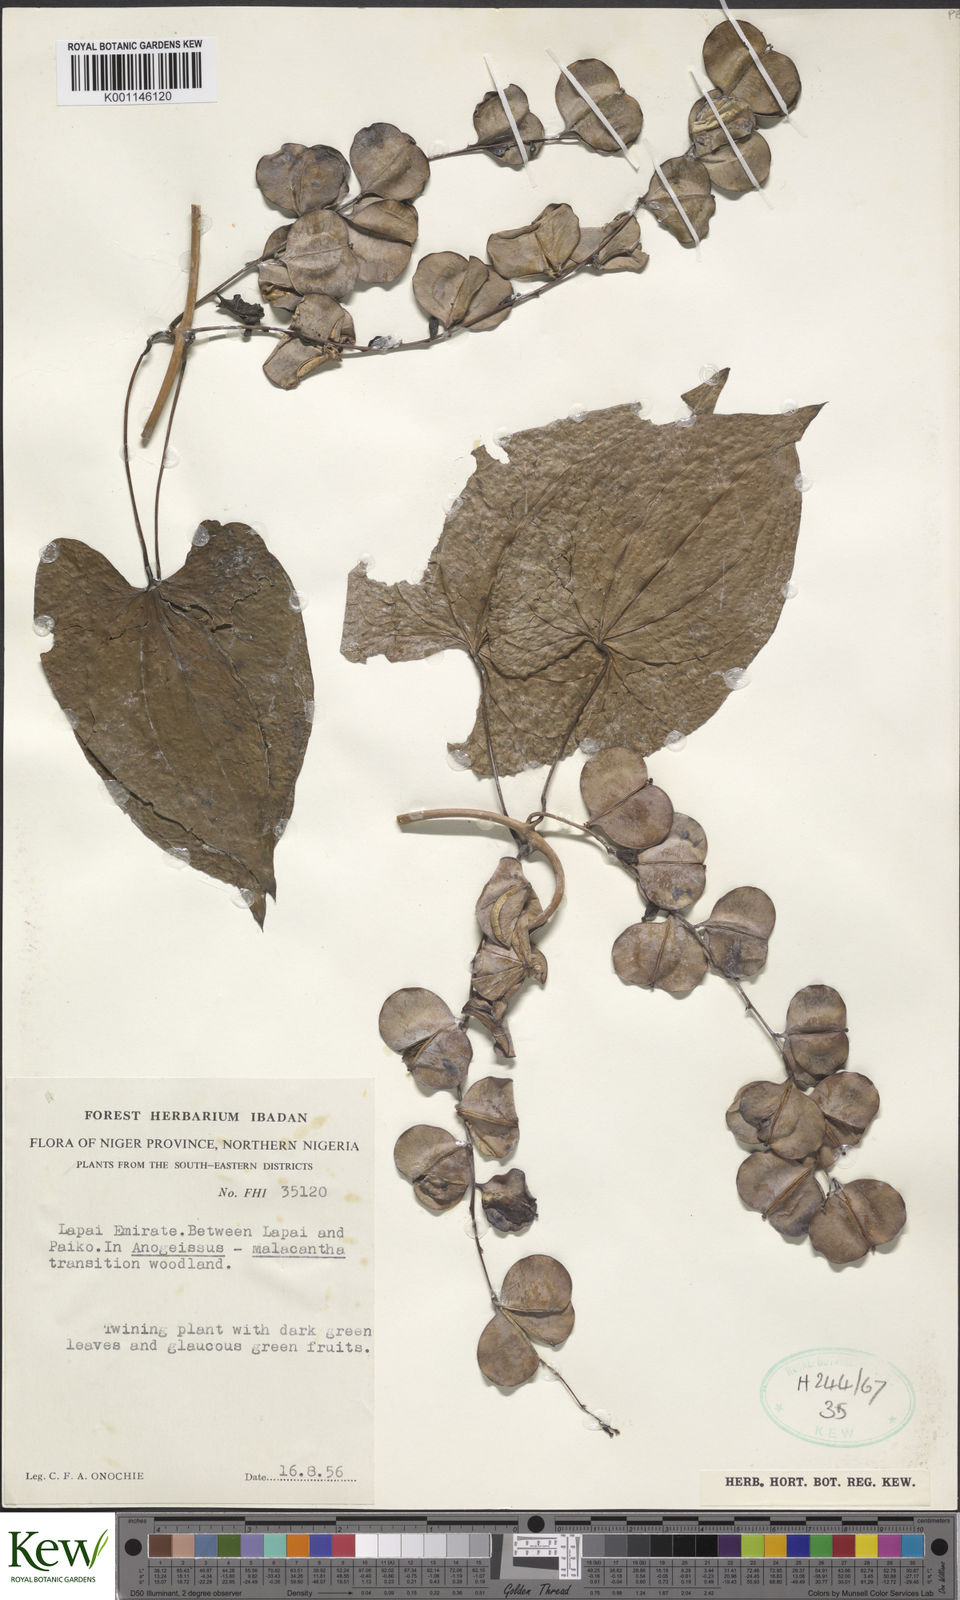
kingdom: Plantae
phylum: Tracheophyta
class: Liliopsida
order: Dioscoreales
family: Dioscoreaceae
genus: Dioscorea
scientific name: Dioscorea
